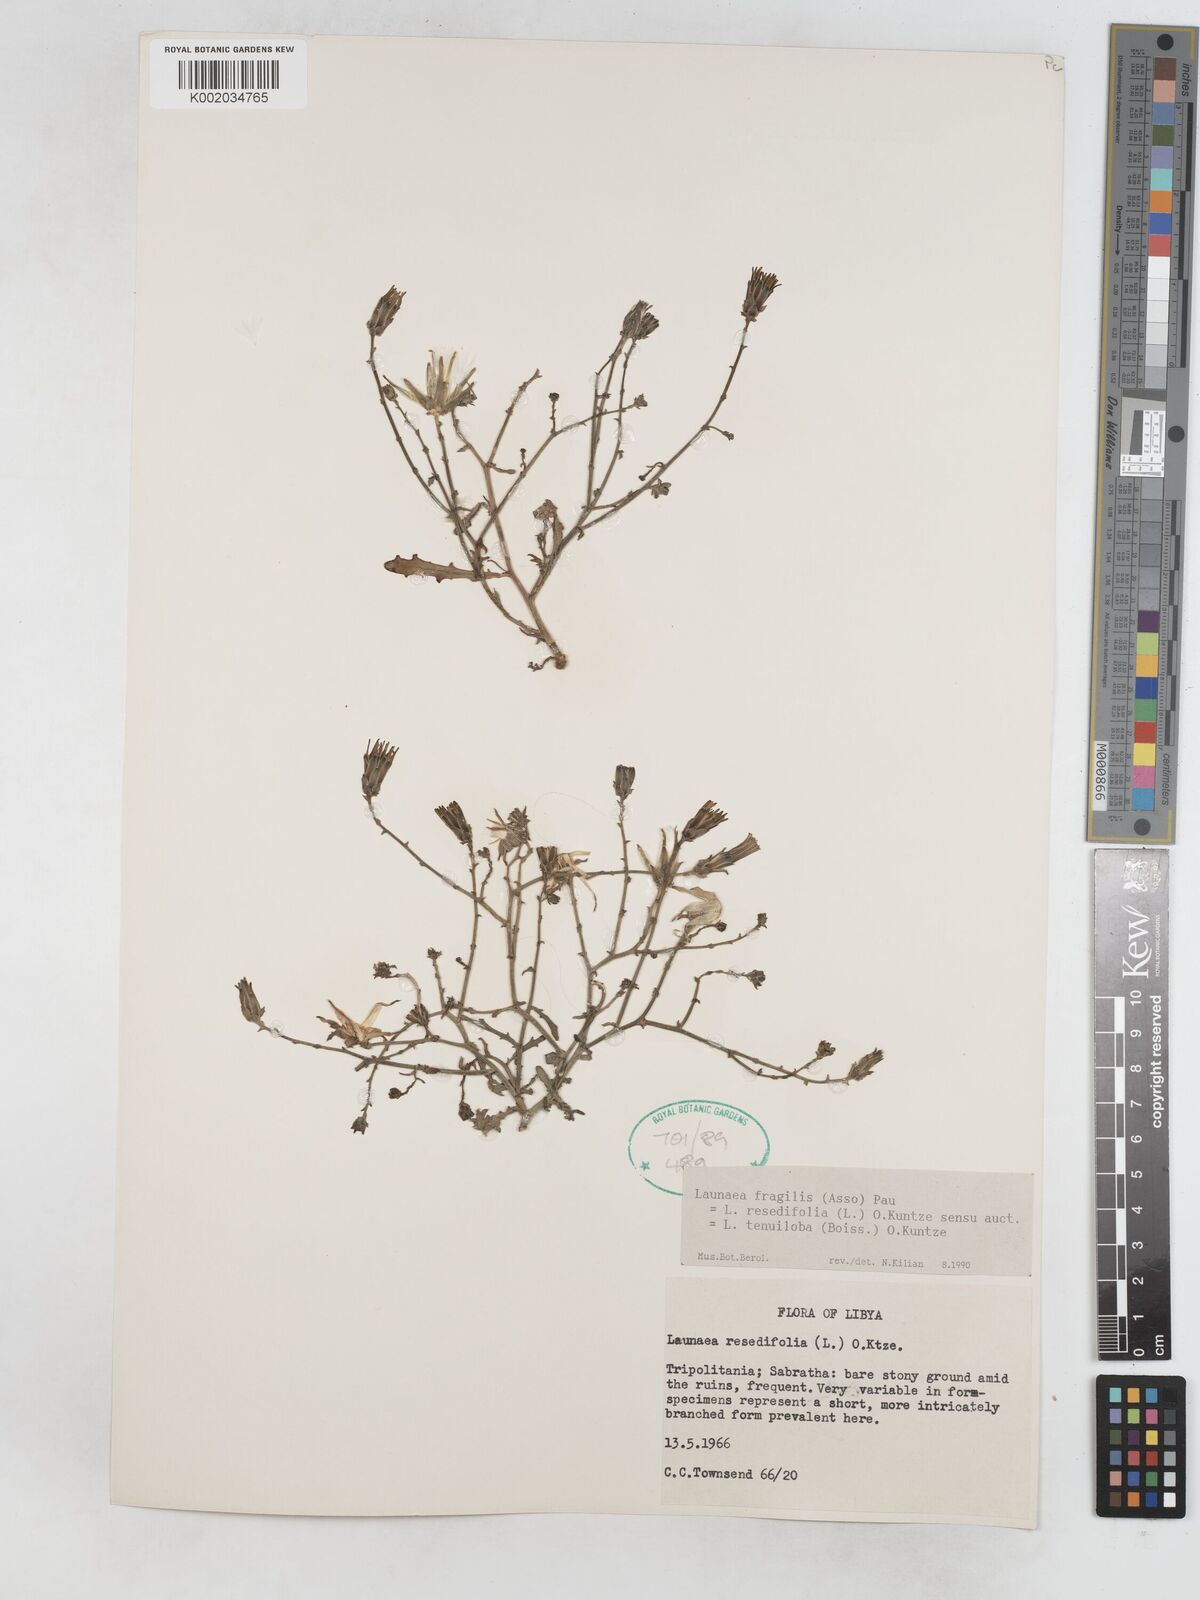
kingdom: Plantae
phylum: Tracheophyta
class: Magnoliopsida
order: Asterales
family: Asteraceae
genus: Launaea
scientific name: Launaea fragilis
